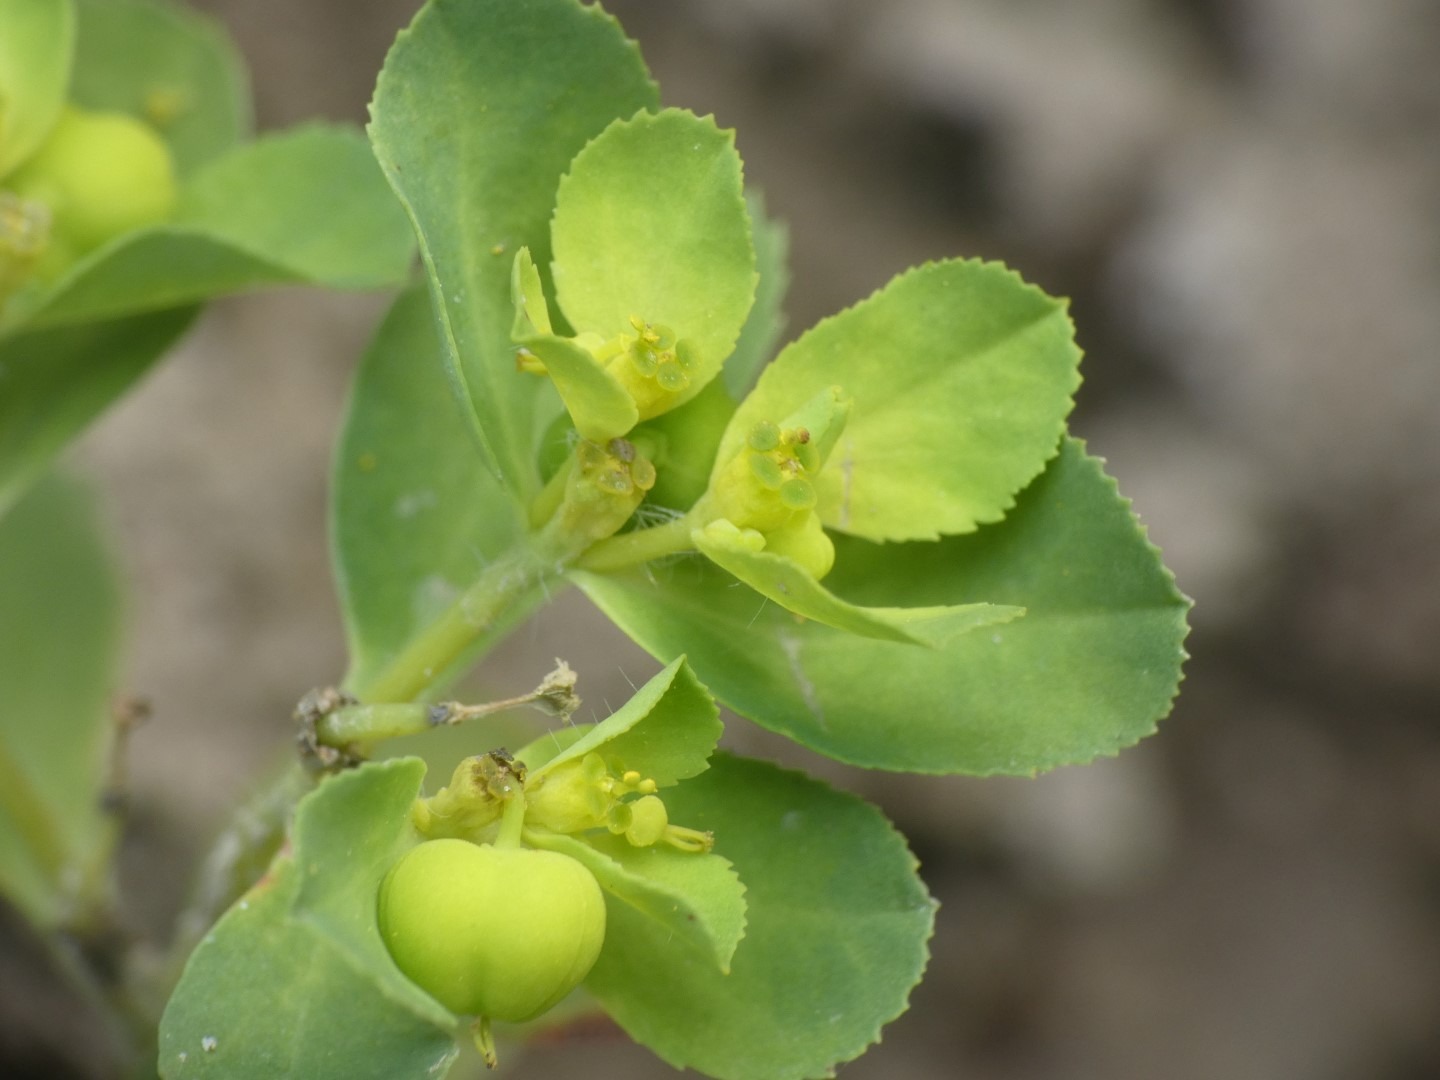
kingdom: Plantae
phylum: Tracheophyta
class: Magnoliopsida
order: Malpighiales
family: Euphorbiaceae
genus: Euphorbia
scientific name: Euphorbia helioscopia
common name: Skærm-vortemælk
